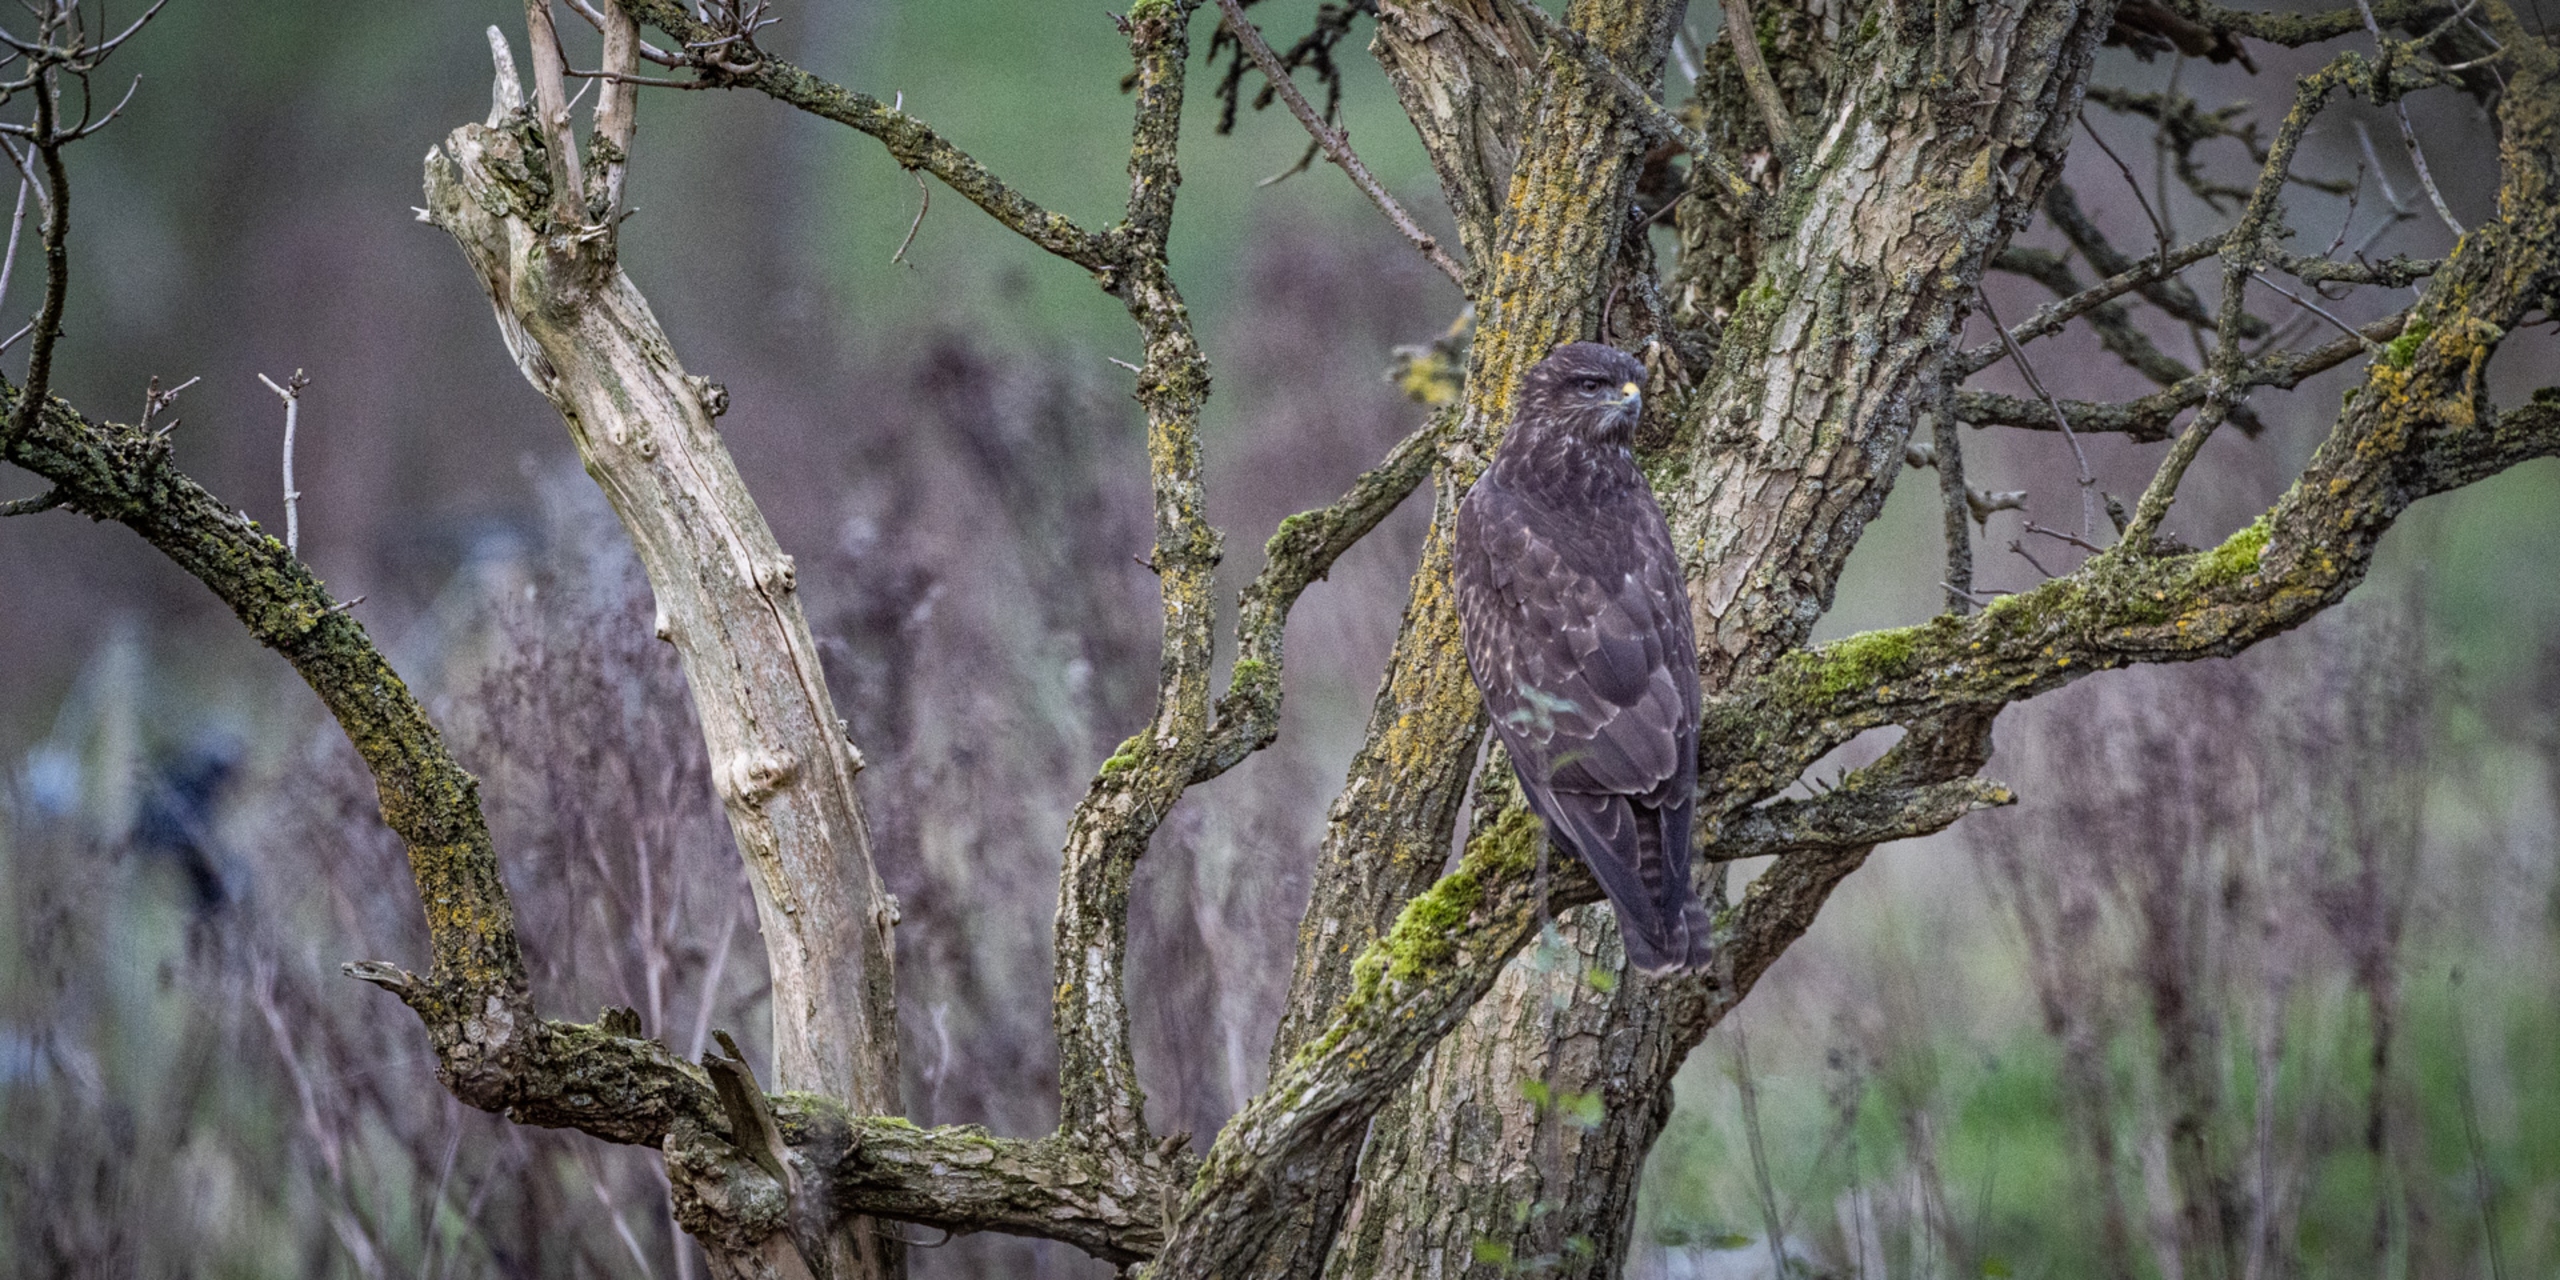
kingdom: Animalia
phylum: Chordata
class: Aves
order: Accipitriformes
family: Accipitridae
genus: Buteo
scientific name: Buteo buteo
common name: Musvåge
